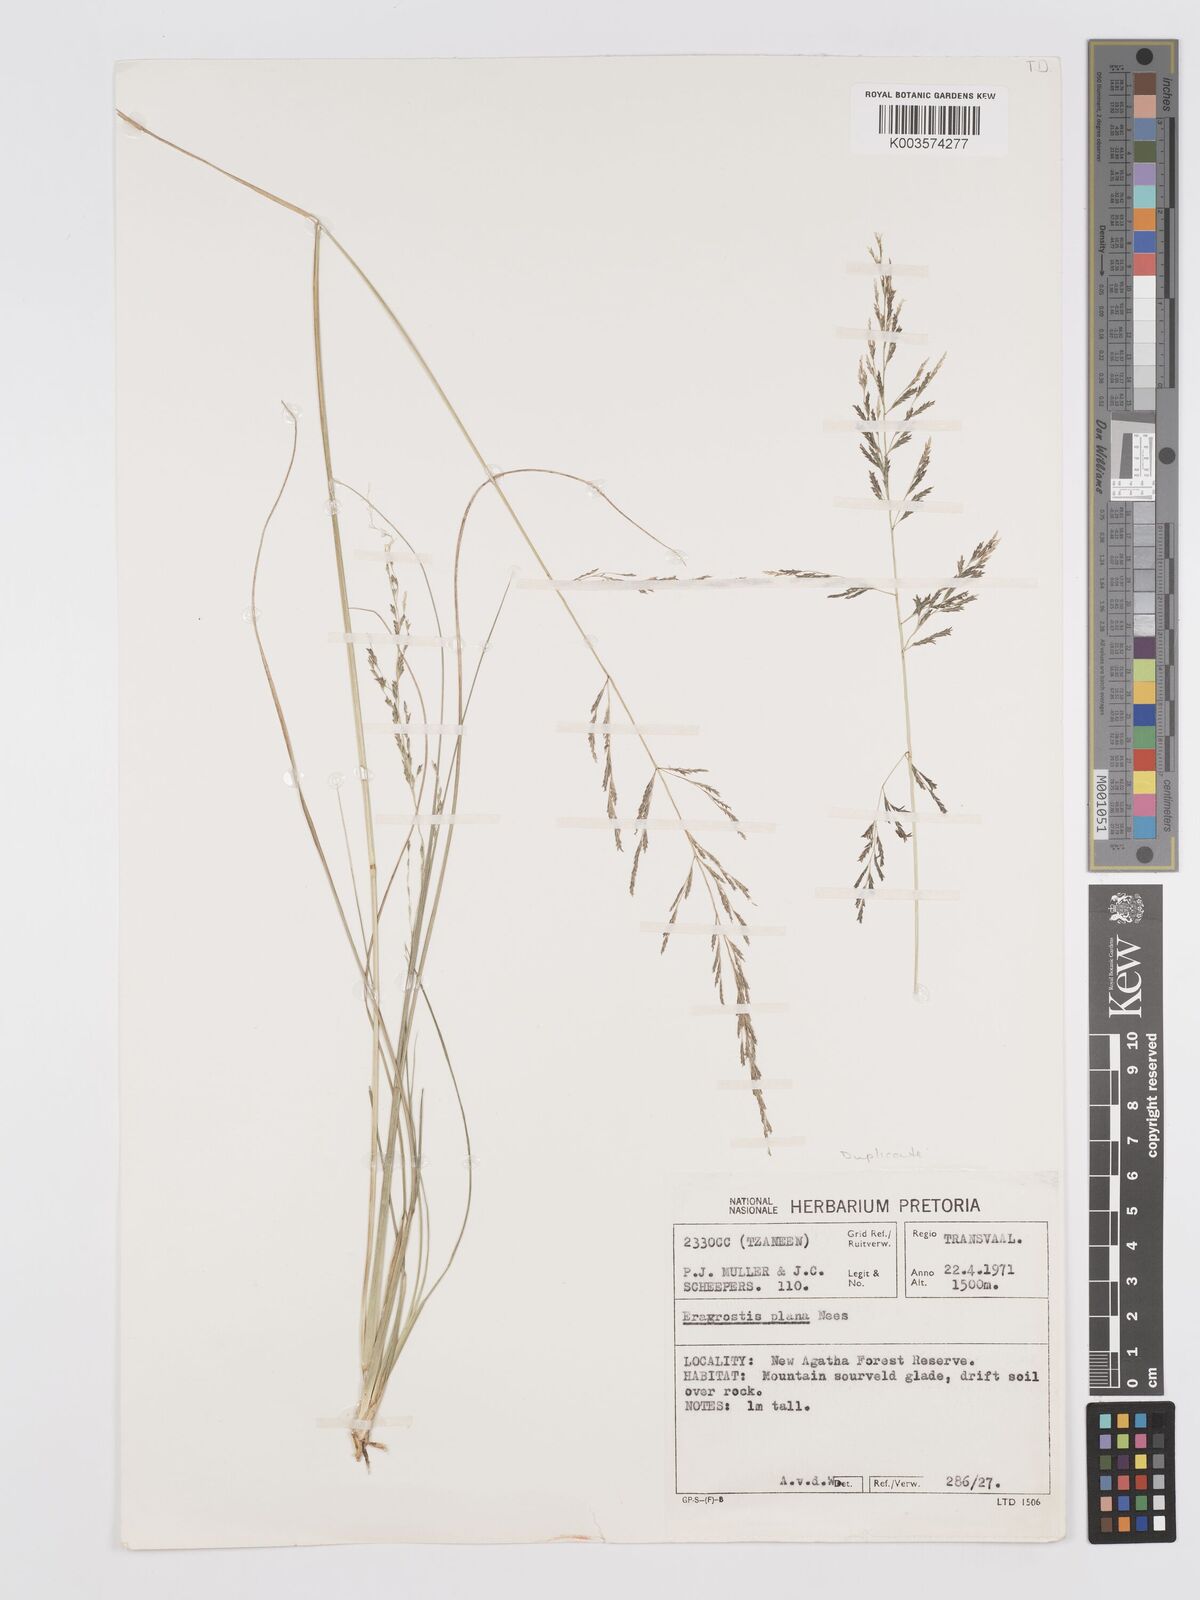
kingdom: Plantae
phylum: Tracheophyta
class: Liliopsida
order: Poales
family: Poaceae
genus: Eragrostis
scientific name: Eragrostis plana
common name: South african lovegrass
